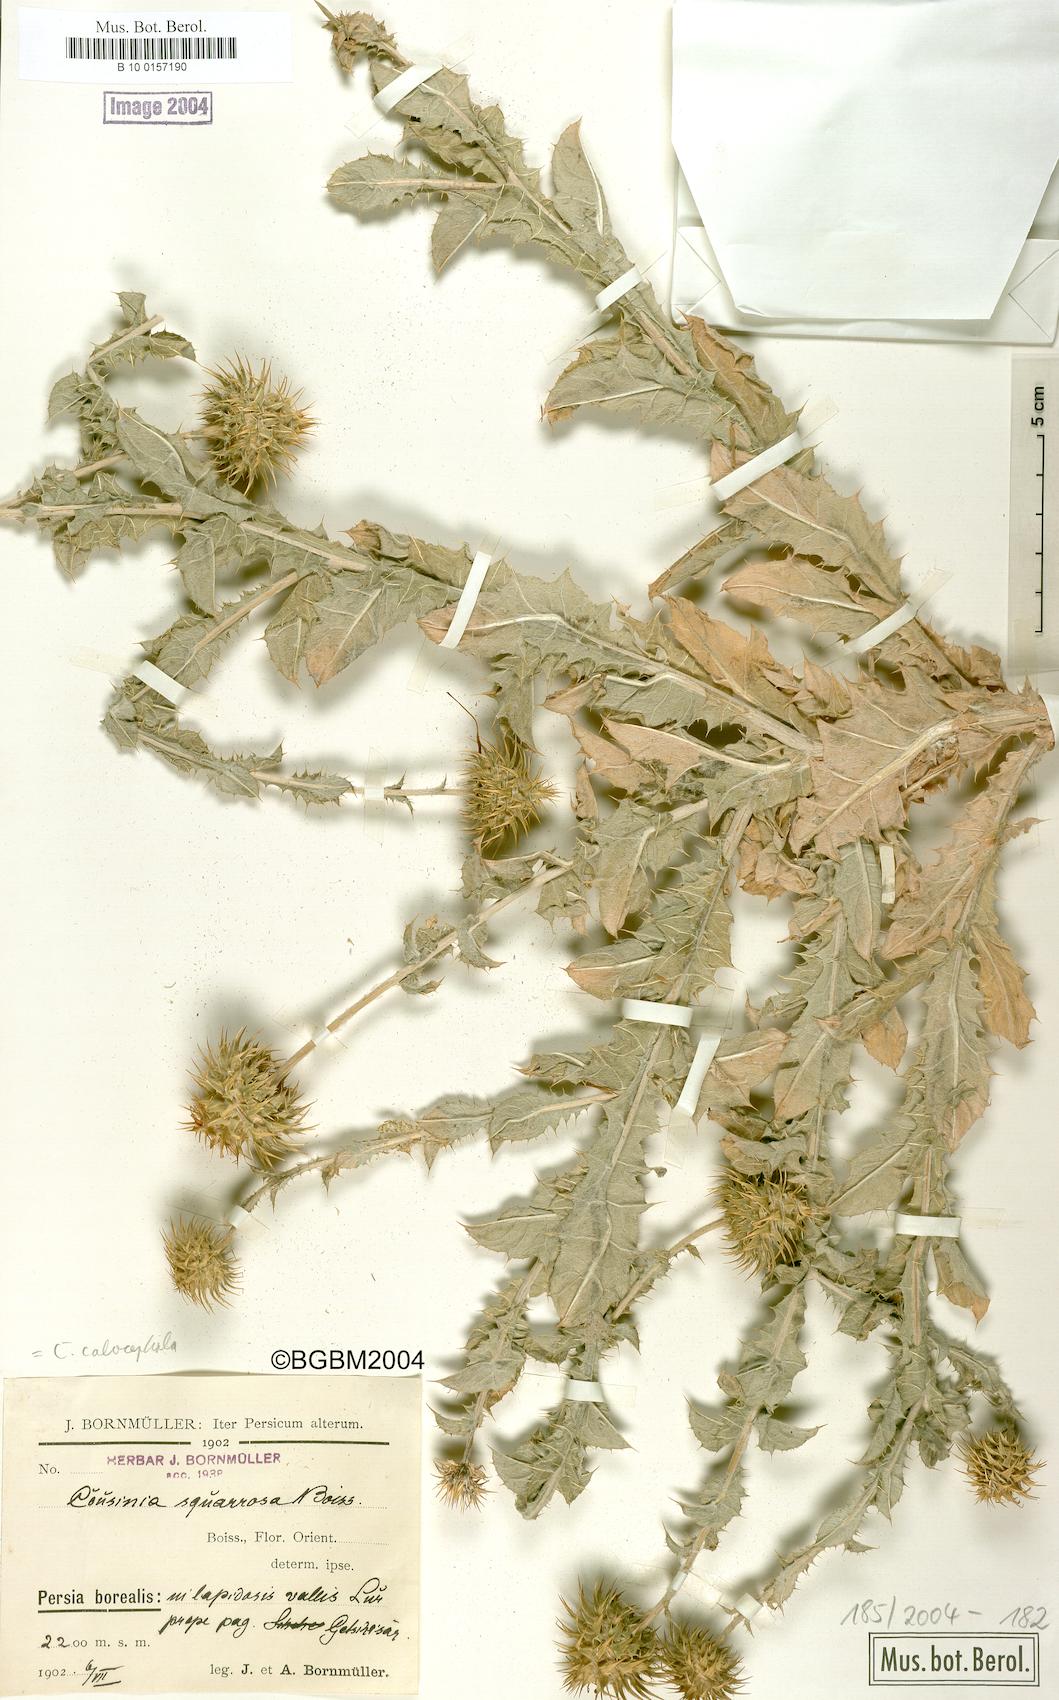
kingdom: Plantae
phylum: Tracheophyta
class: Magnoliopsida
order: Asterales
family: Asteraceae
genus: Cousinia
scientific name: Cousinia calocephala
